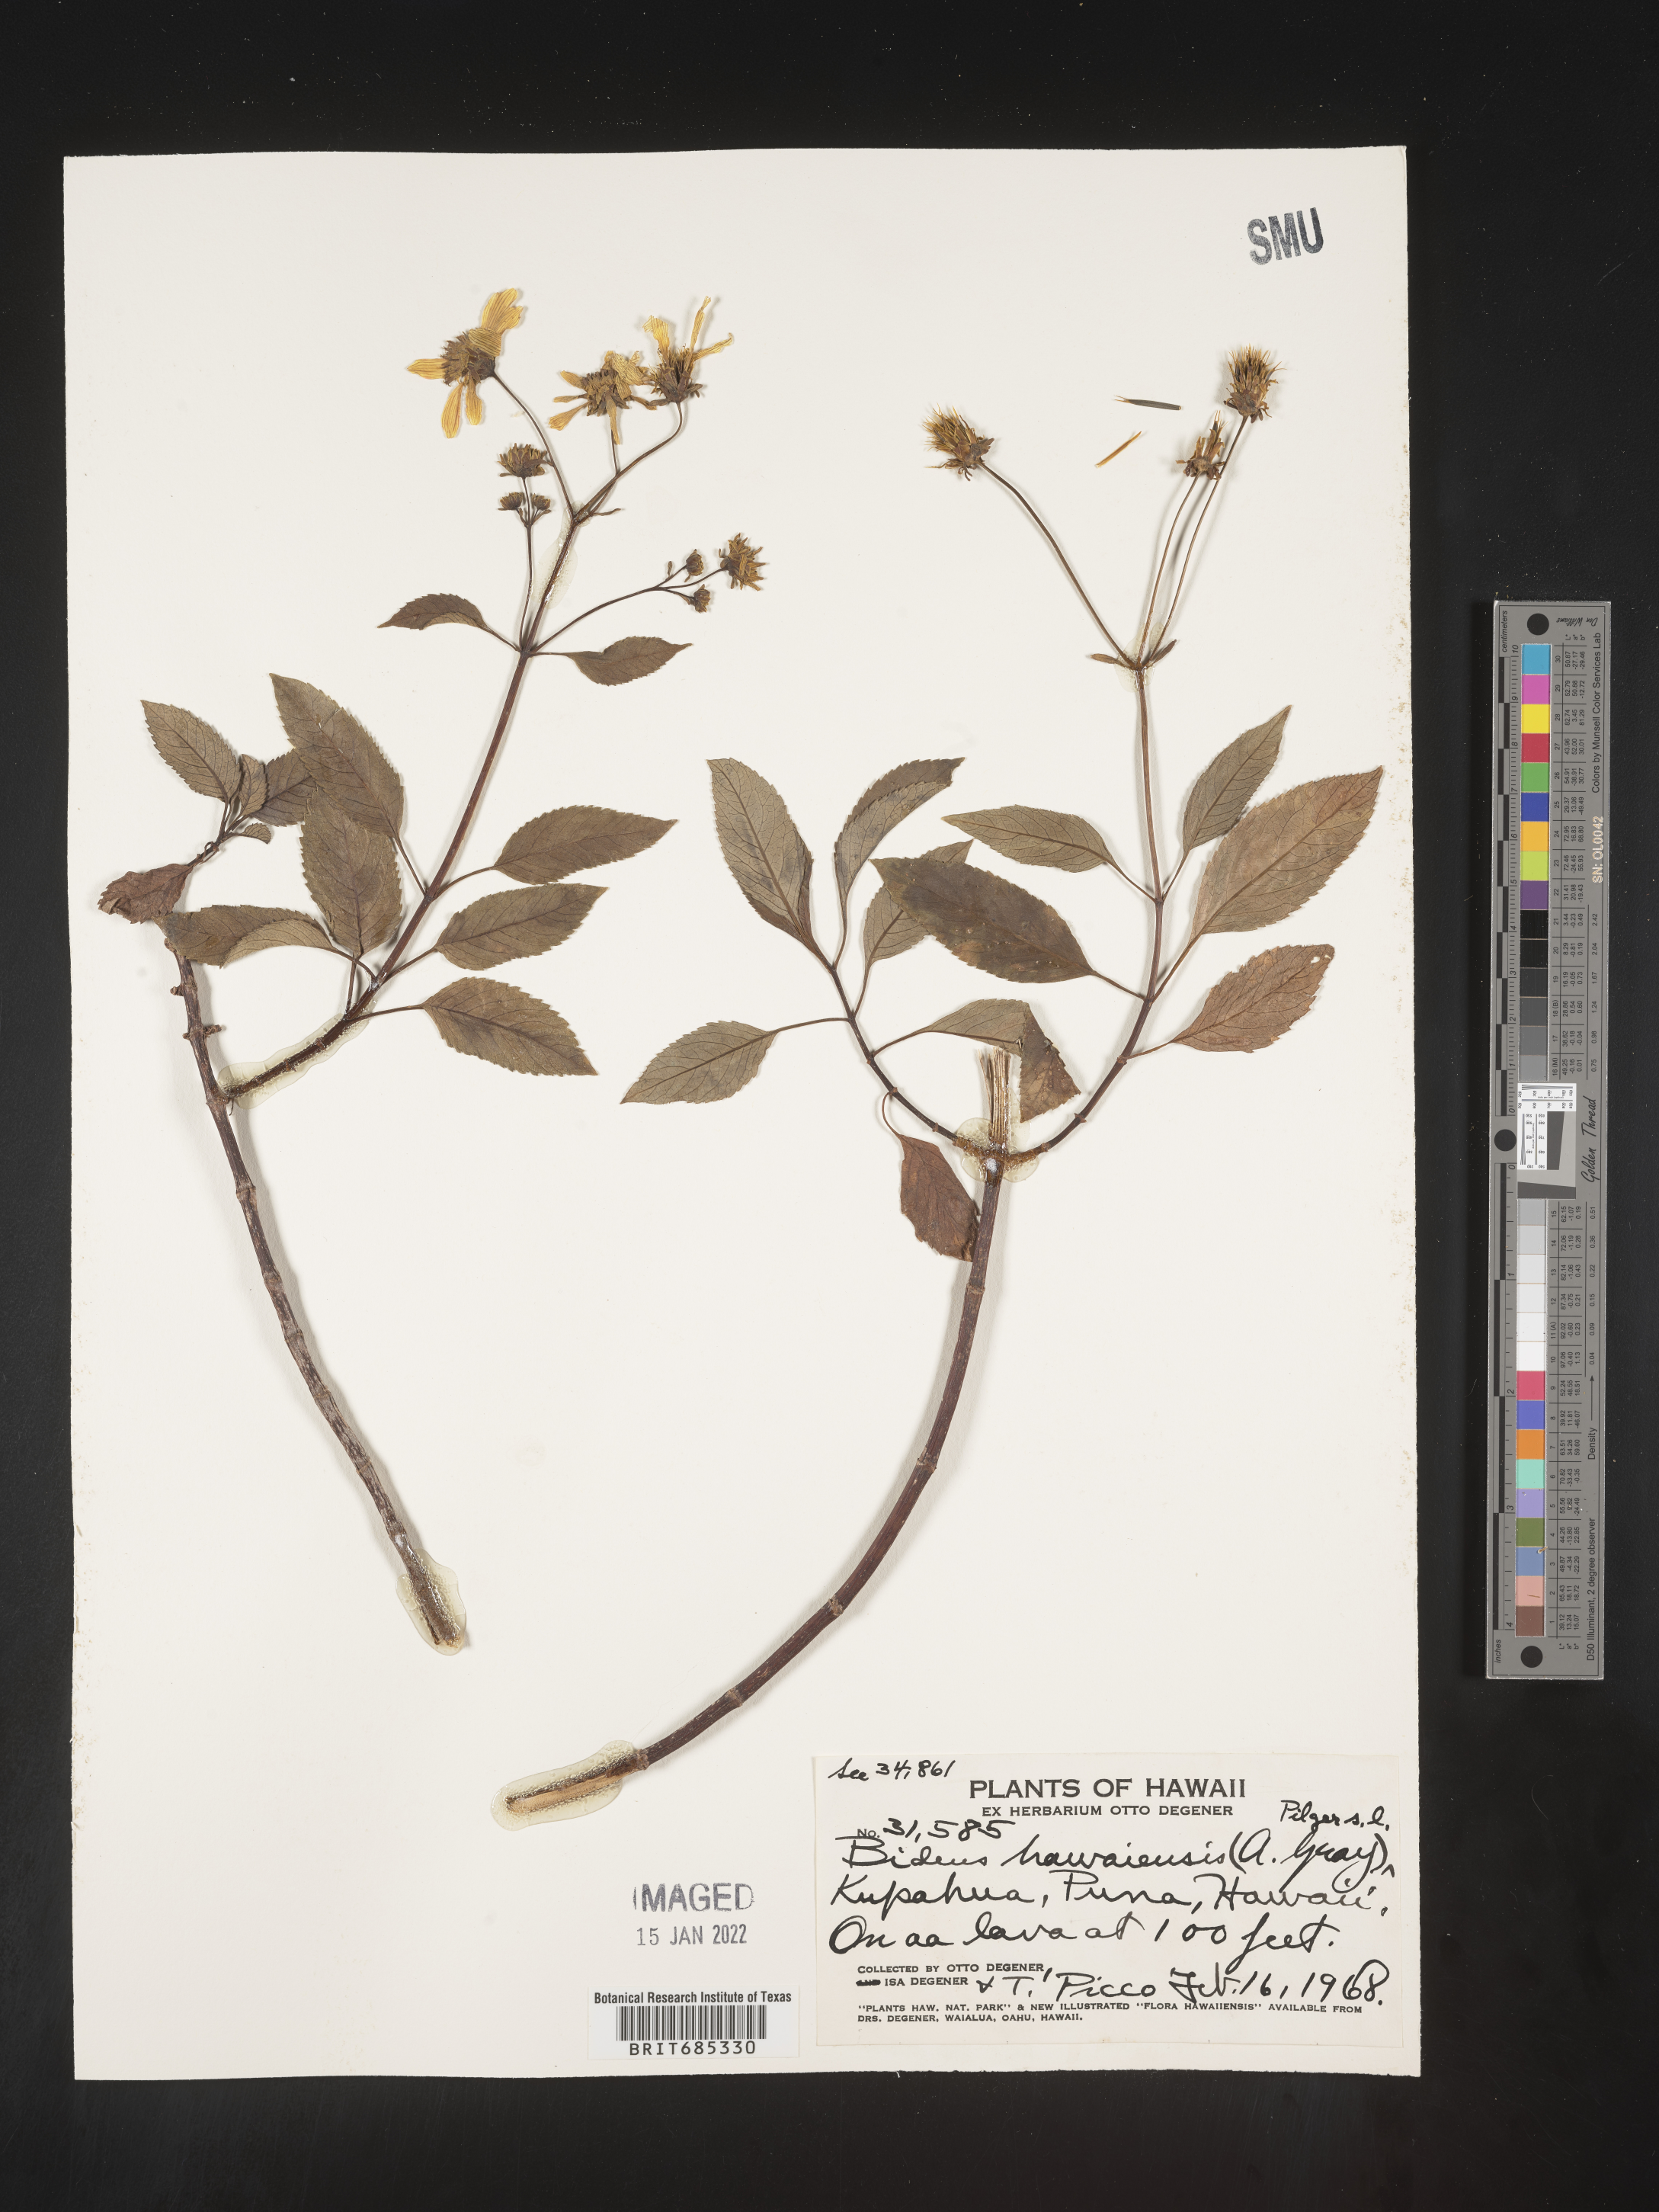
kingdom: Plantae
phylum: Tracheophyta
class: Magnoliopsida
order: Asterales
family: Asteraceae
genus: Bidens
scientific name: Bidens
